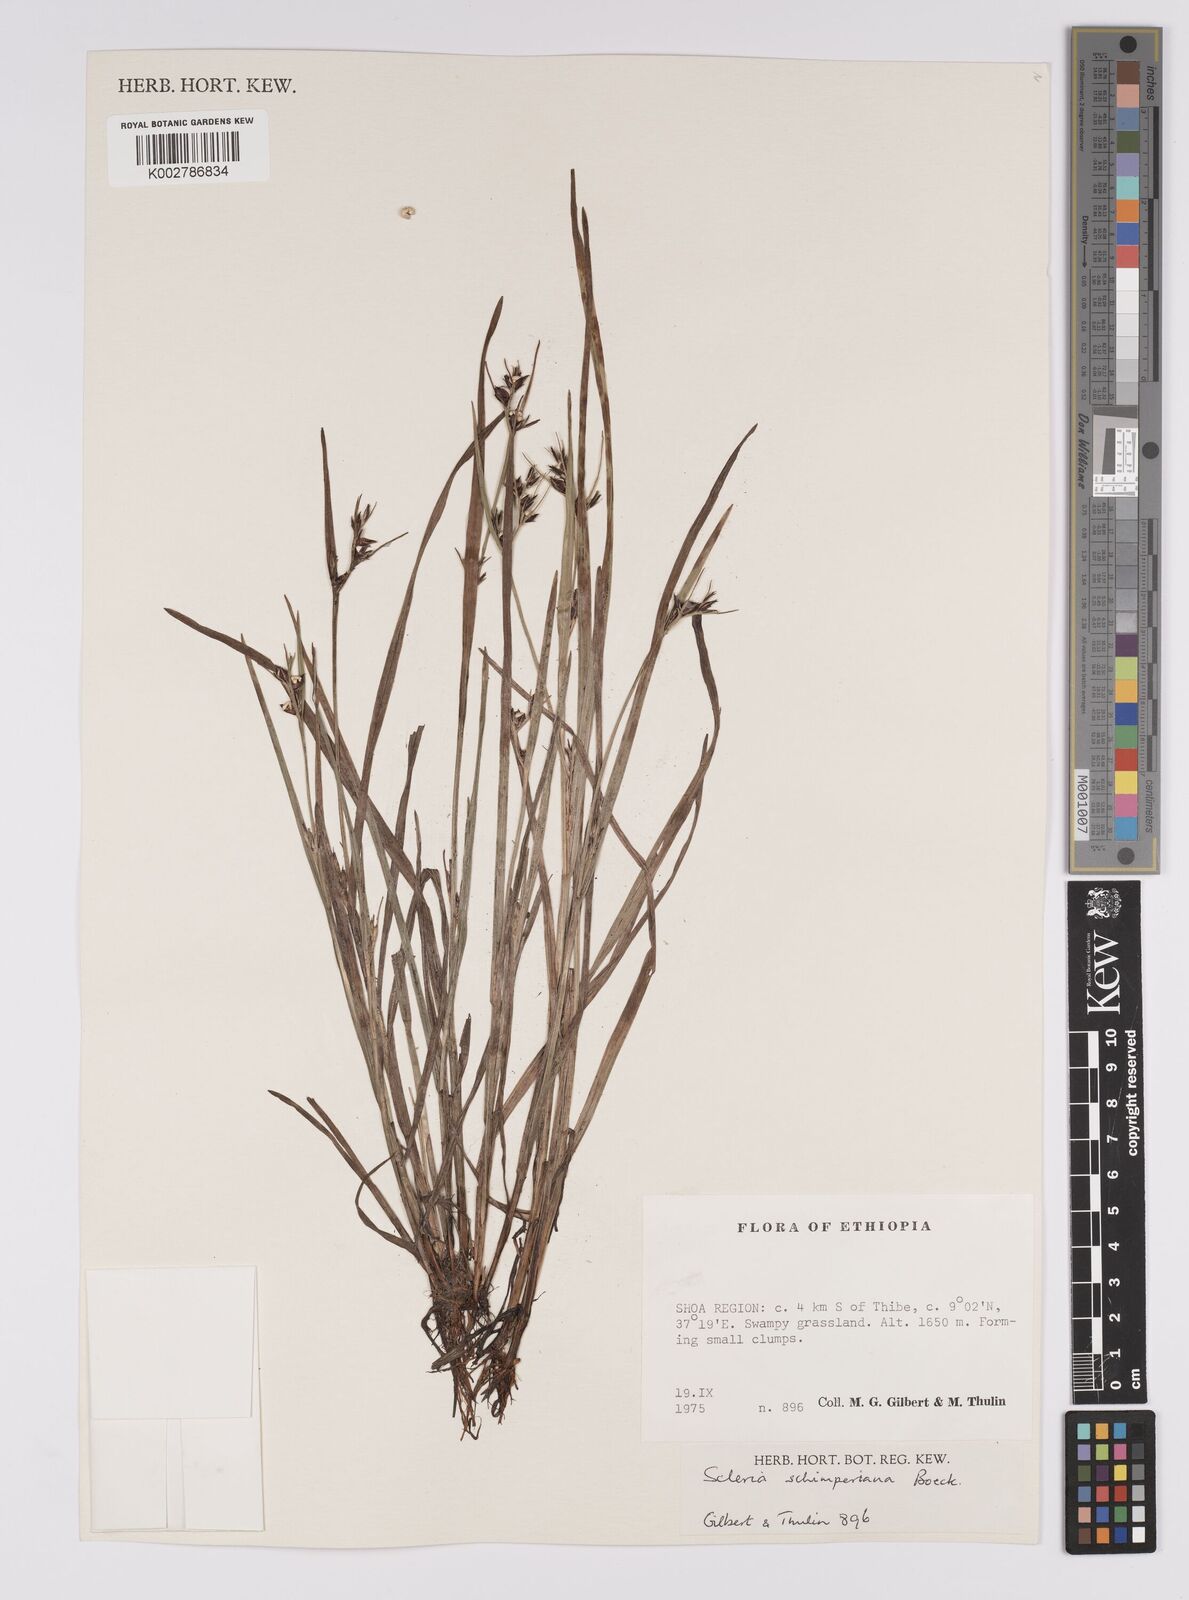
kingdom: Plantae
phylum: Tracheophyta
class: Liliopsida
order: Poales
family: Cyperaceae
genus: Scleria
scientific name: Scleria schimperiana
